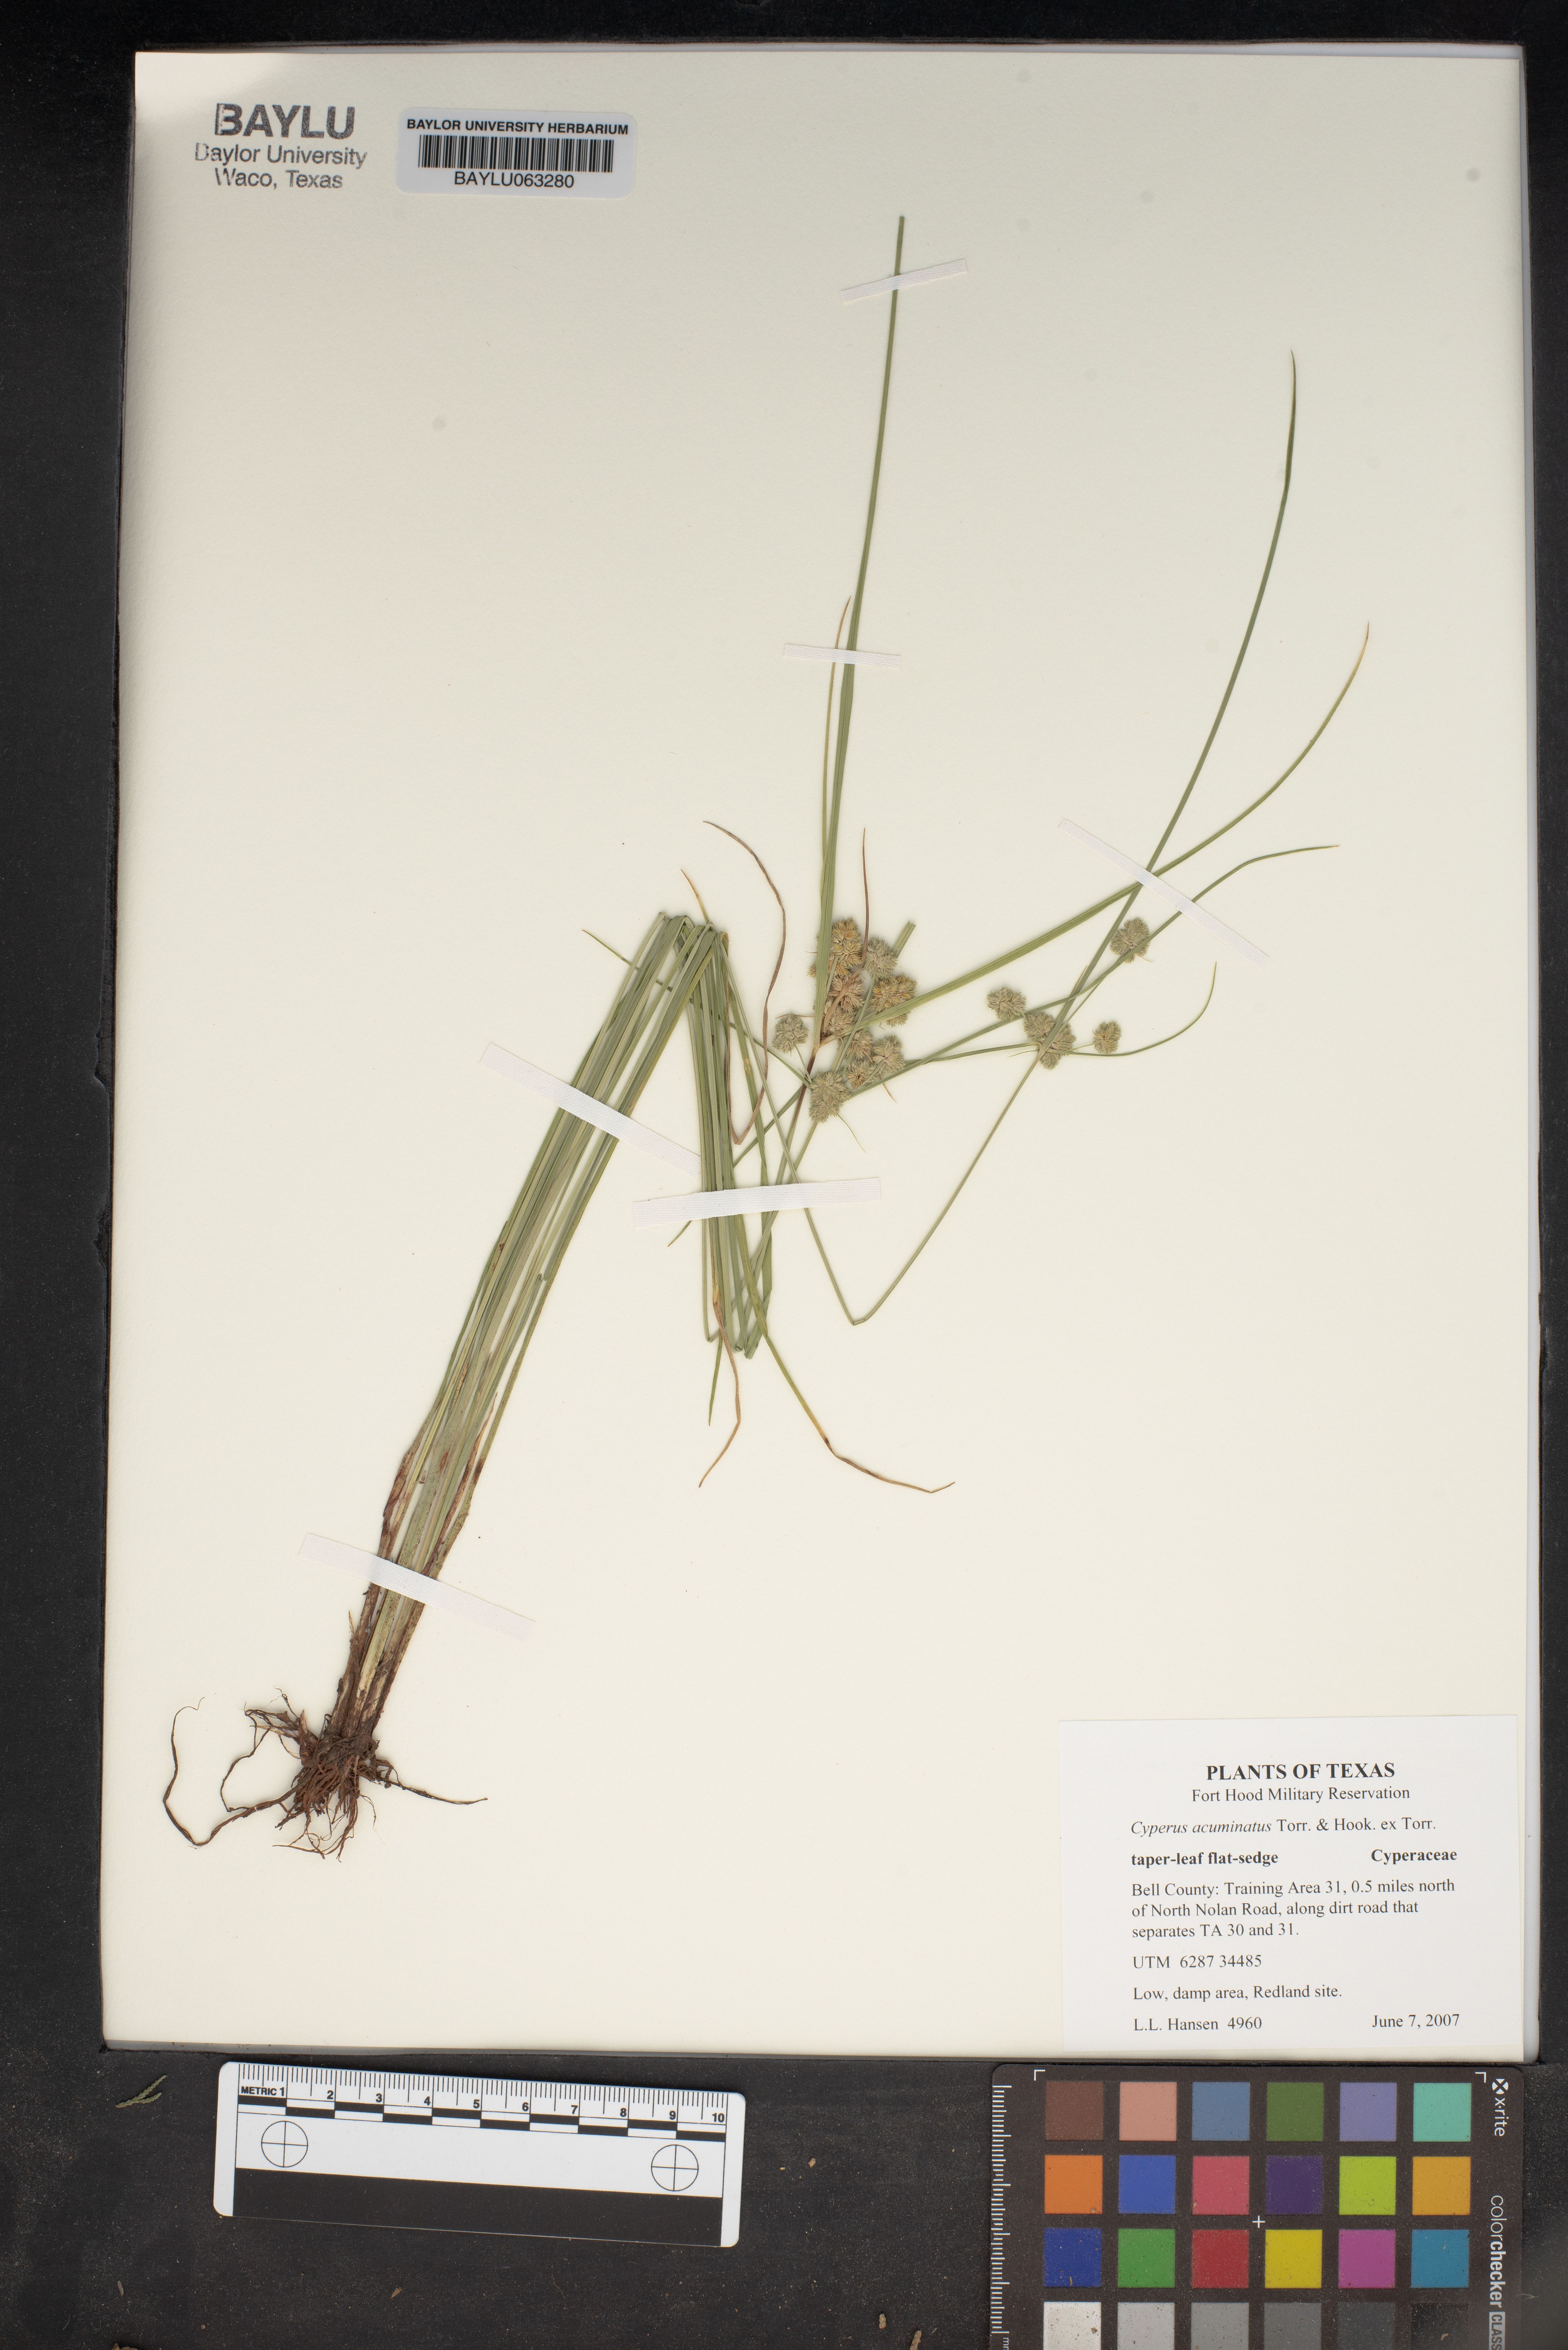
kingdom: Plantae
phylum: Tracheophyta
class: Liliopsida
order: Poales
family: Cyperaceae
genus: Cyperus
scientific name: Cyperus acuminatus
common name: Short-pointed cyperus
